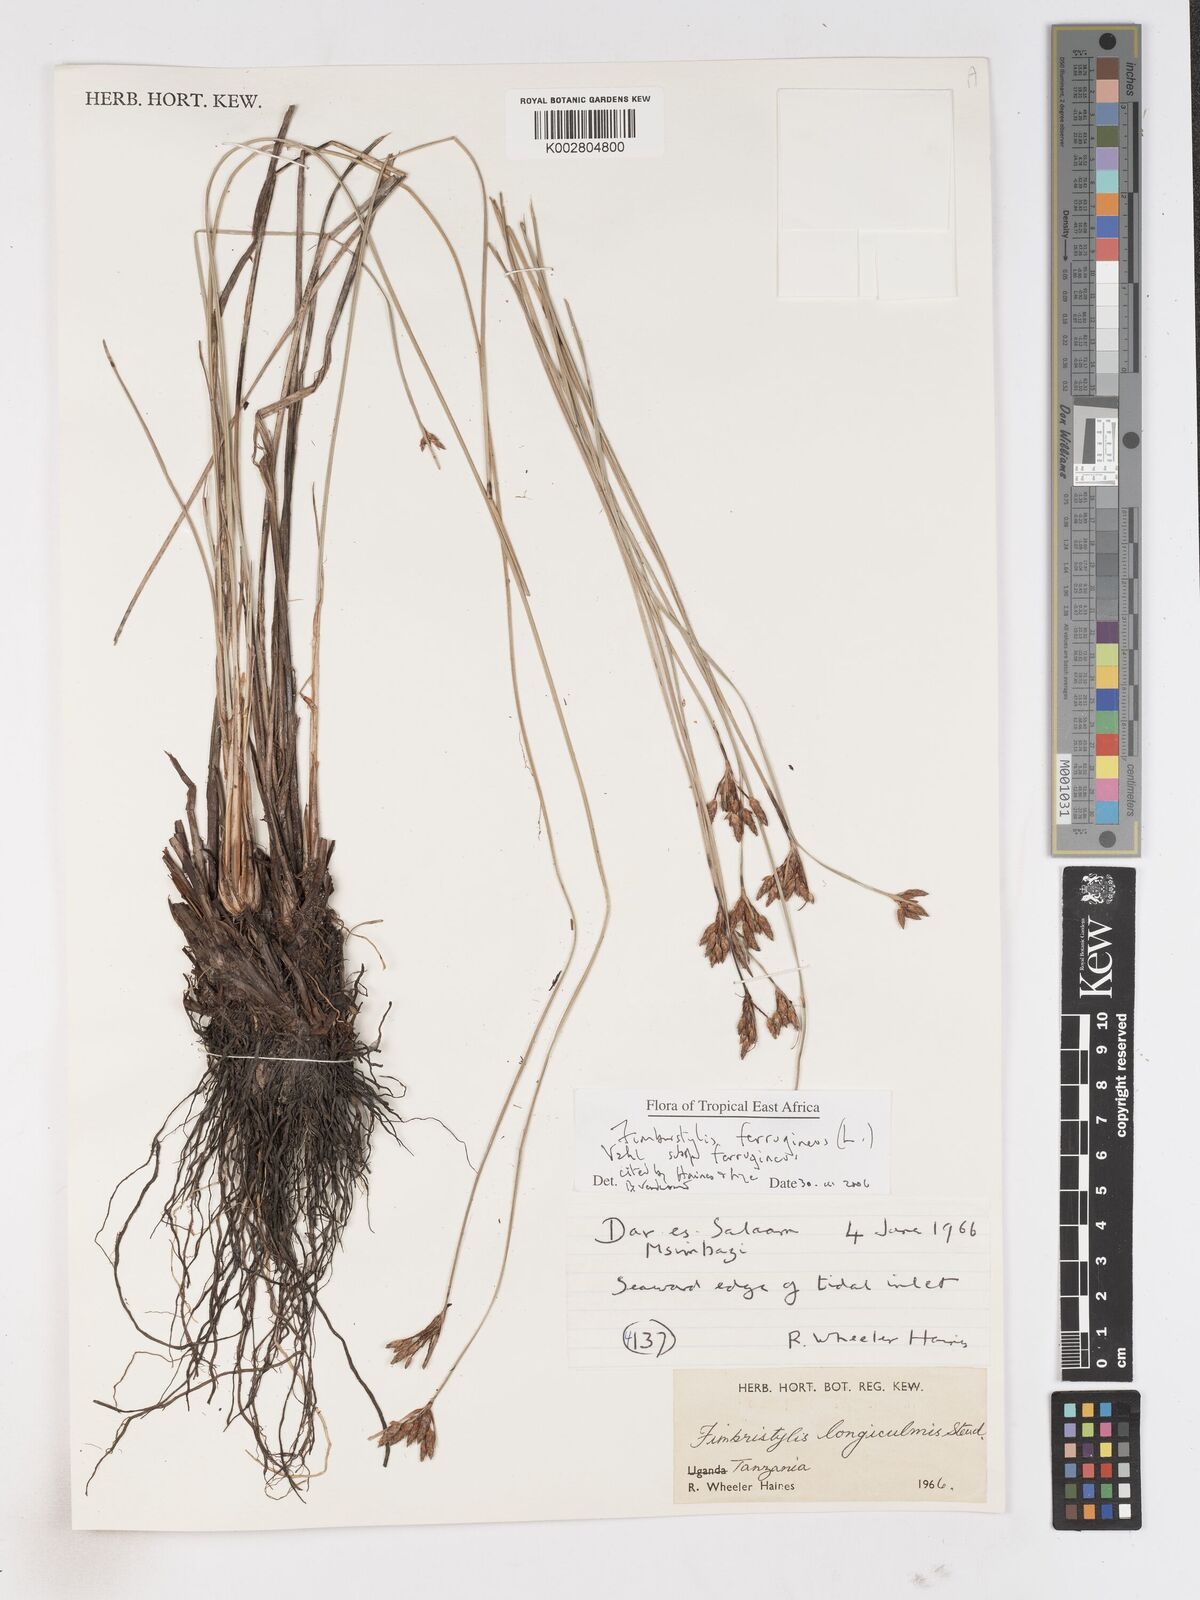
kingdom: Plantae
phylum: Tracheophyta
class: Liliopsida
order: Poales
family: Cyperaceae
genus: Fimbristylis
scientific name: Fimbristylis ferruginea
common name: West indian fimbry
